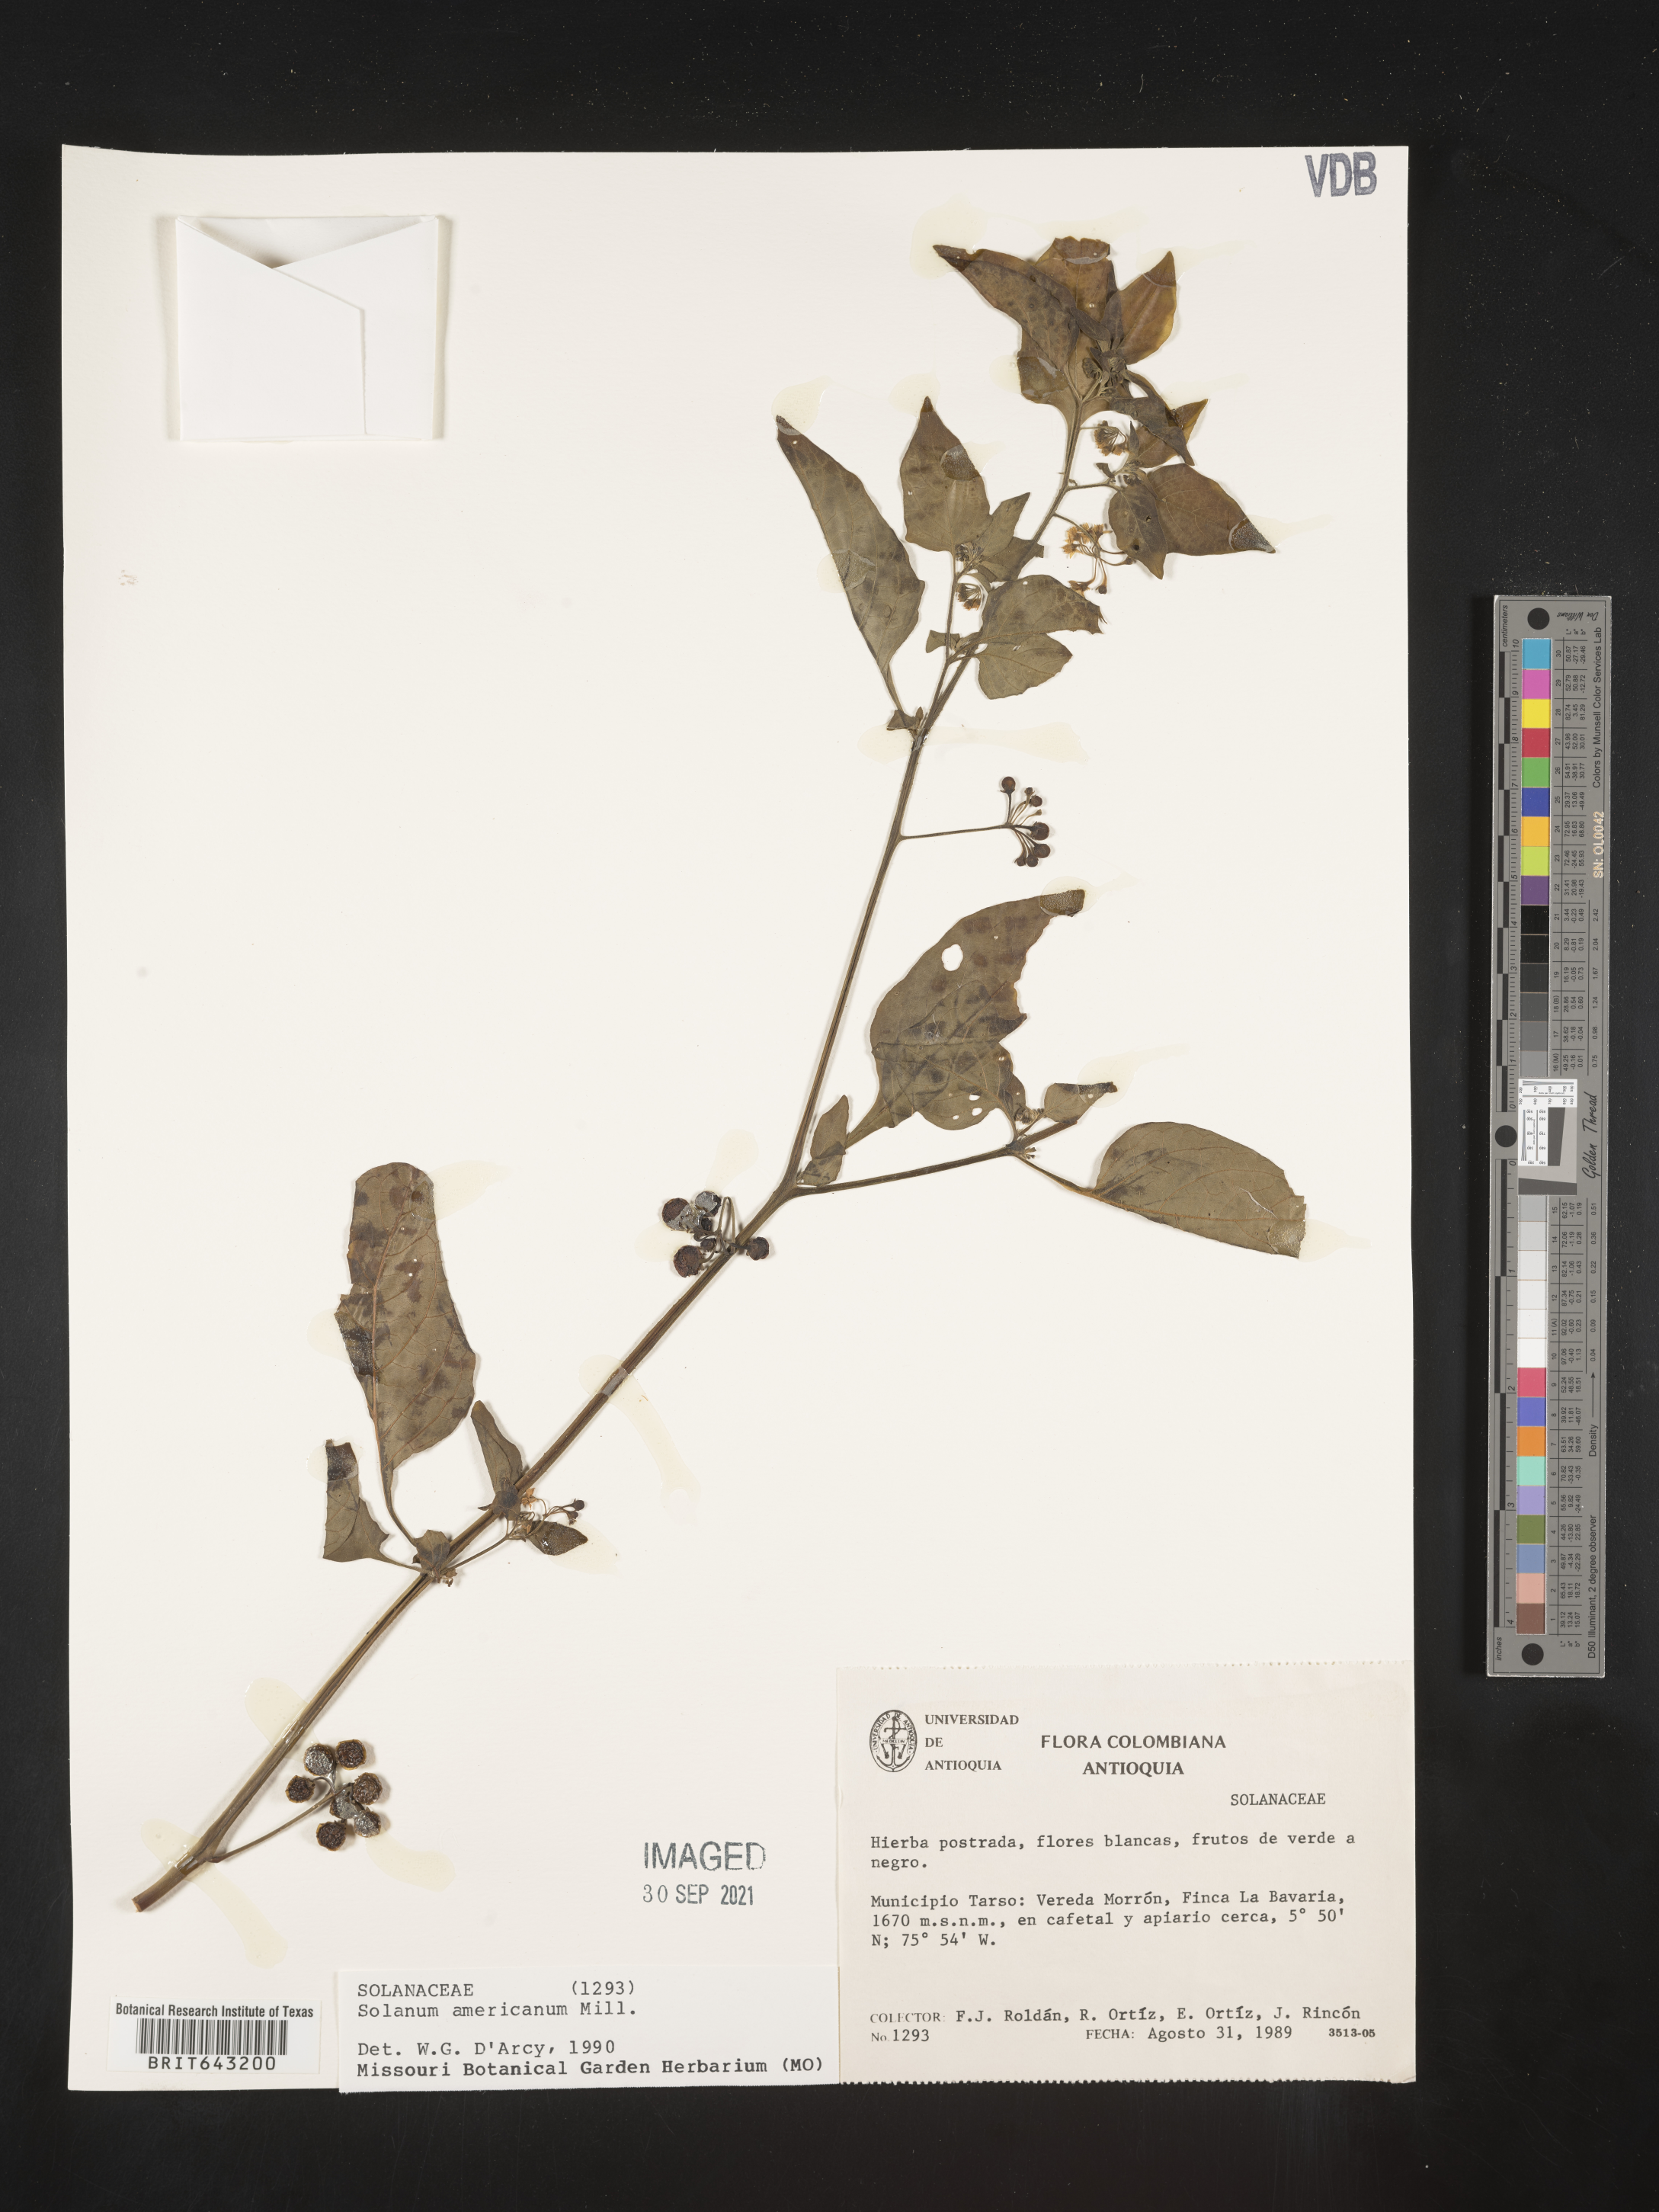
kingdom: Plantae
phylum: Tracheophyta
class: Magnoliopsida
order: Solanales
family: Solanaceae
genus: Solanum
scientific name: Solanum
